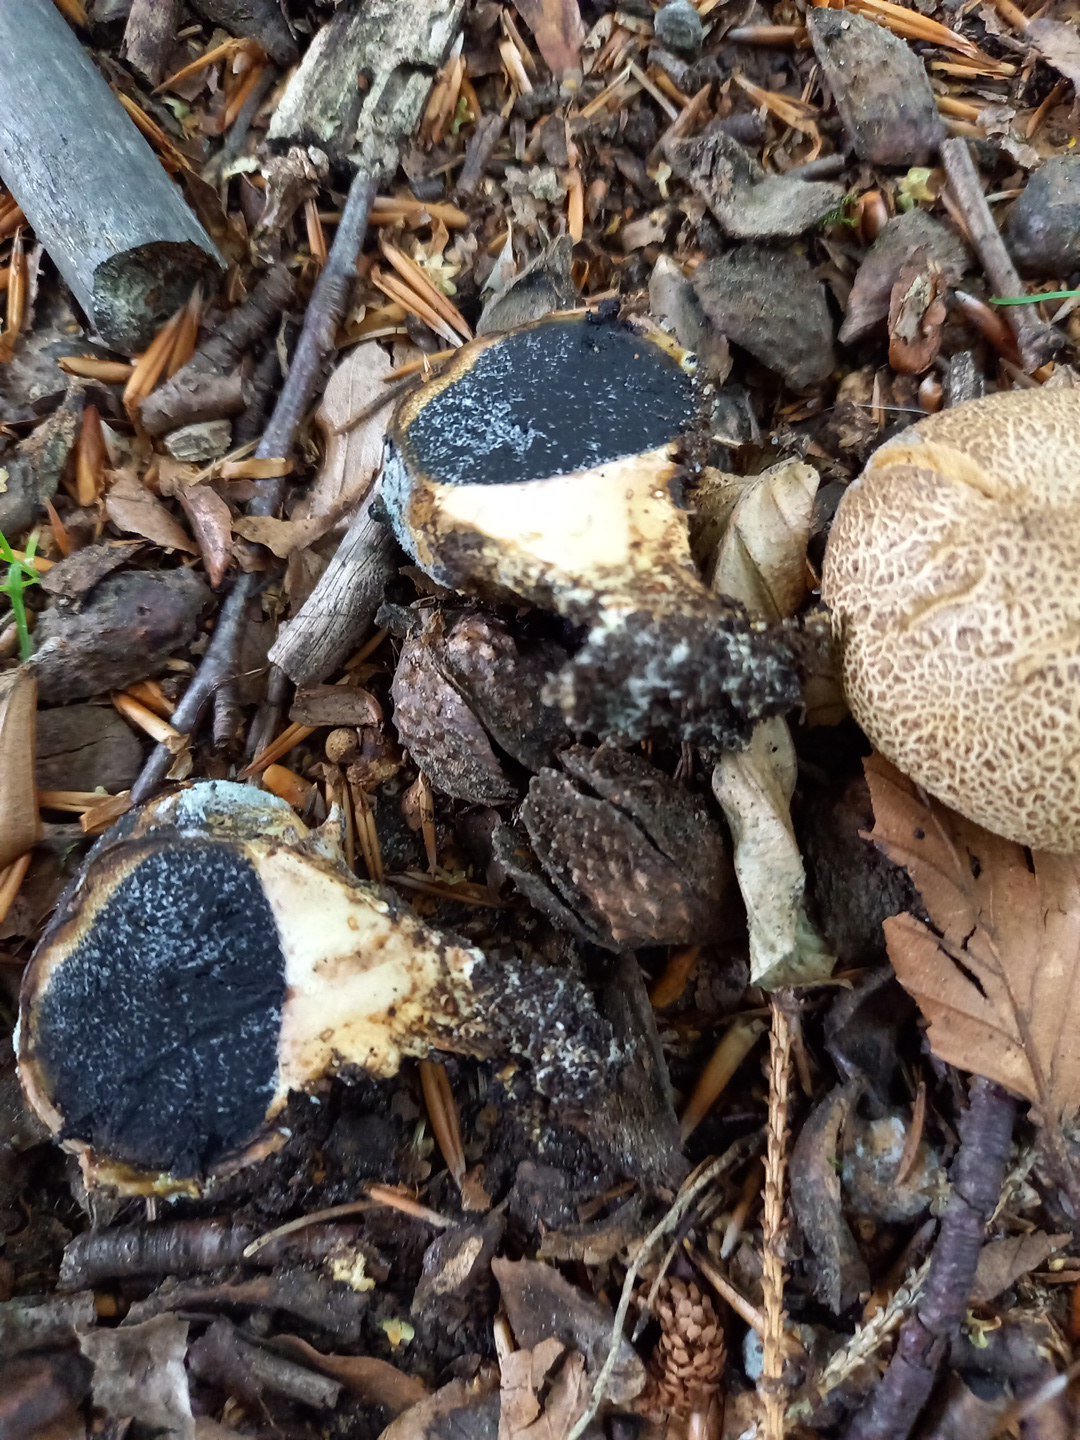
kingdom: Fungi
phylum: Basidiomycota
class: Agaricomycetes
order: Boletales
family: Sclerodermataceae
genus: Scleroderma
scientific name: Scleroderma citrinum
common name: almindelig bruskbold
